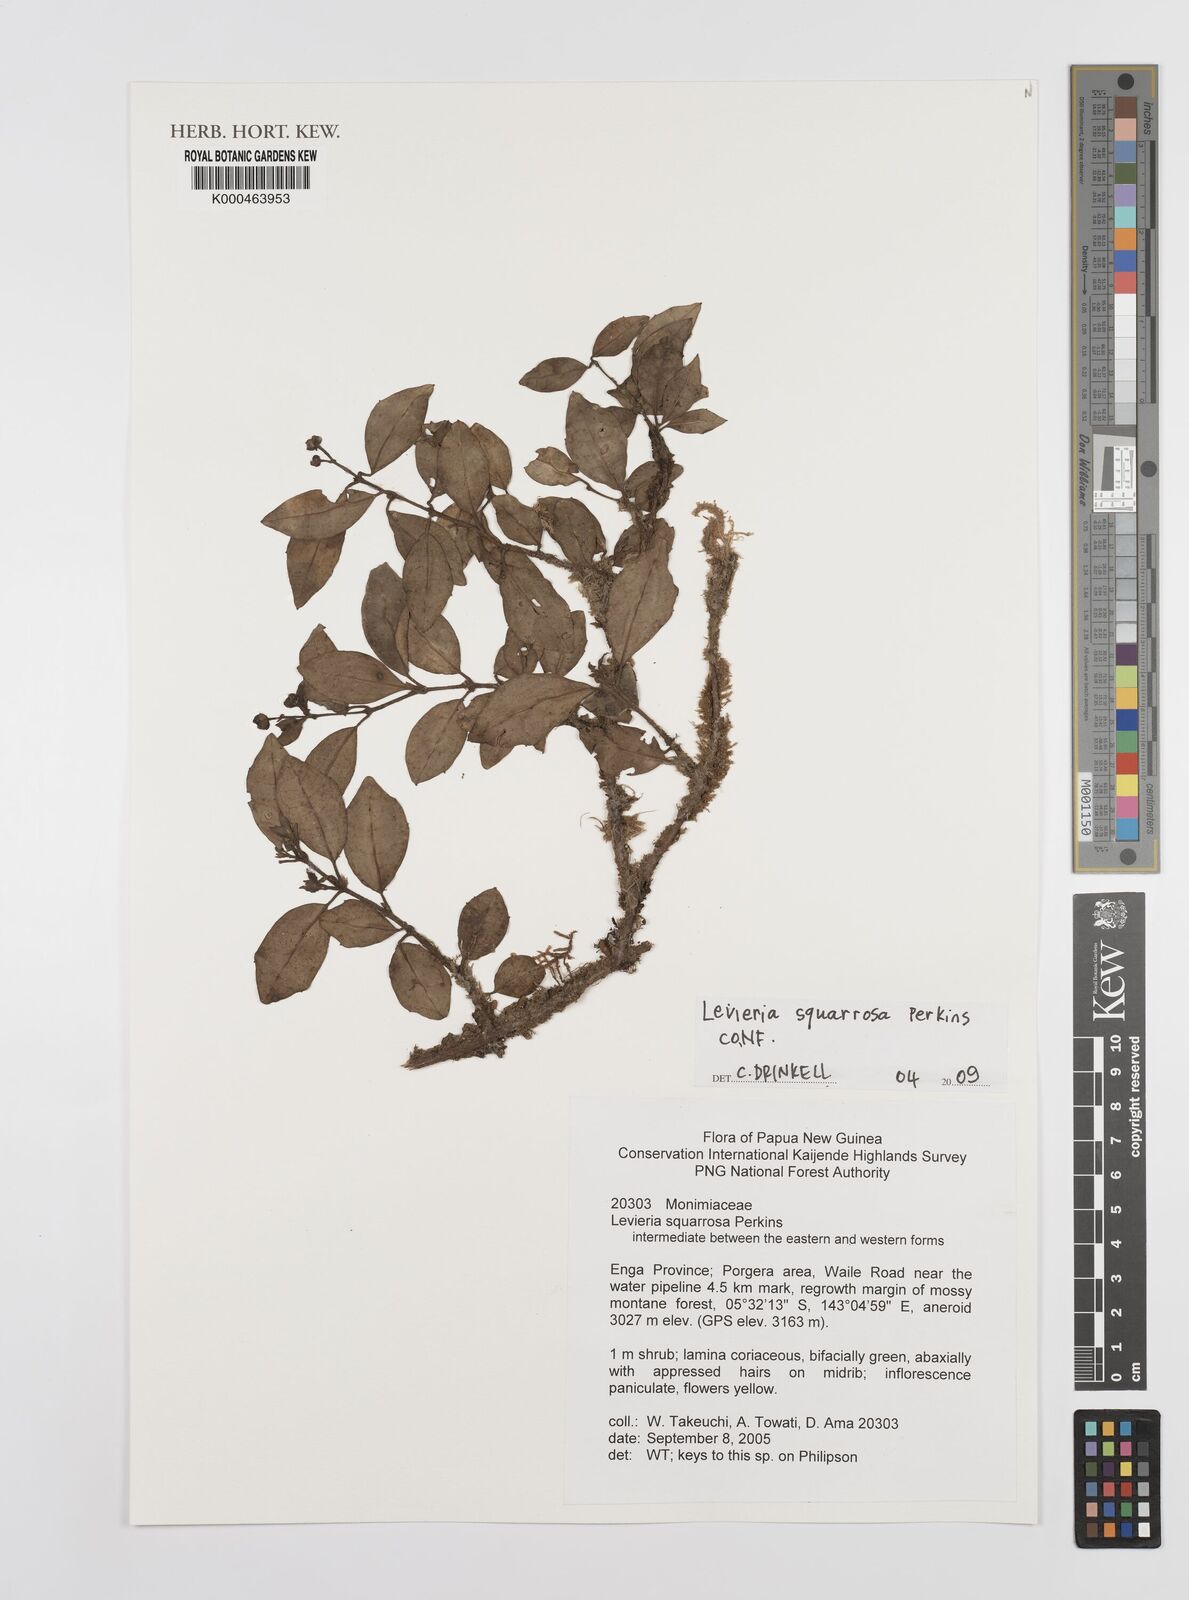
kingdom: Plantae
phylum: Tracheophyta
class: Magnoliopsida
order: Laurales
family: Monimiaceae
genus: Levieria
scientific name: Levieria squarrosa
